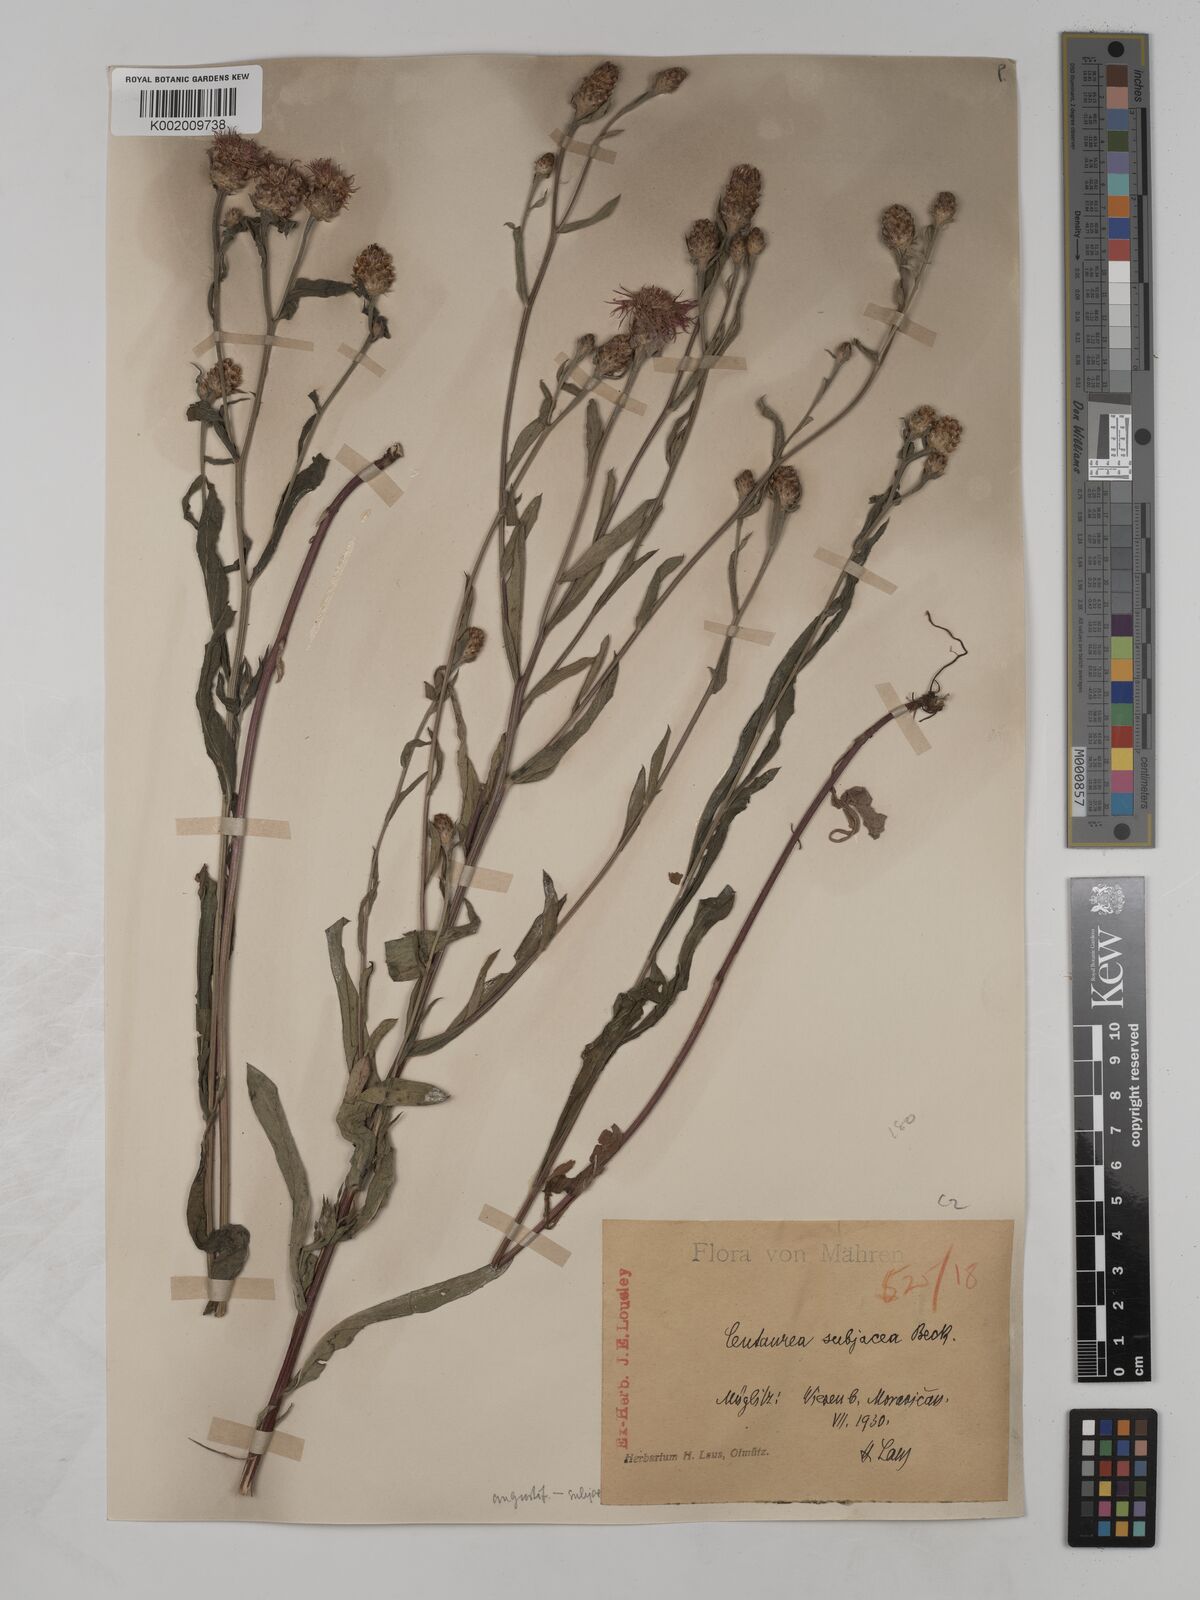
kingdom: Plantae
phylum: Tracheophyta
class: Magnoliopsida
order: Asterales
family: Asteraceae
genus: Centaurea
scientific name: Centaurea
